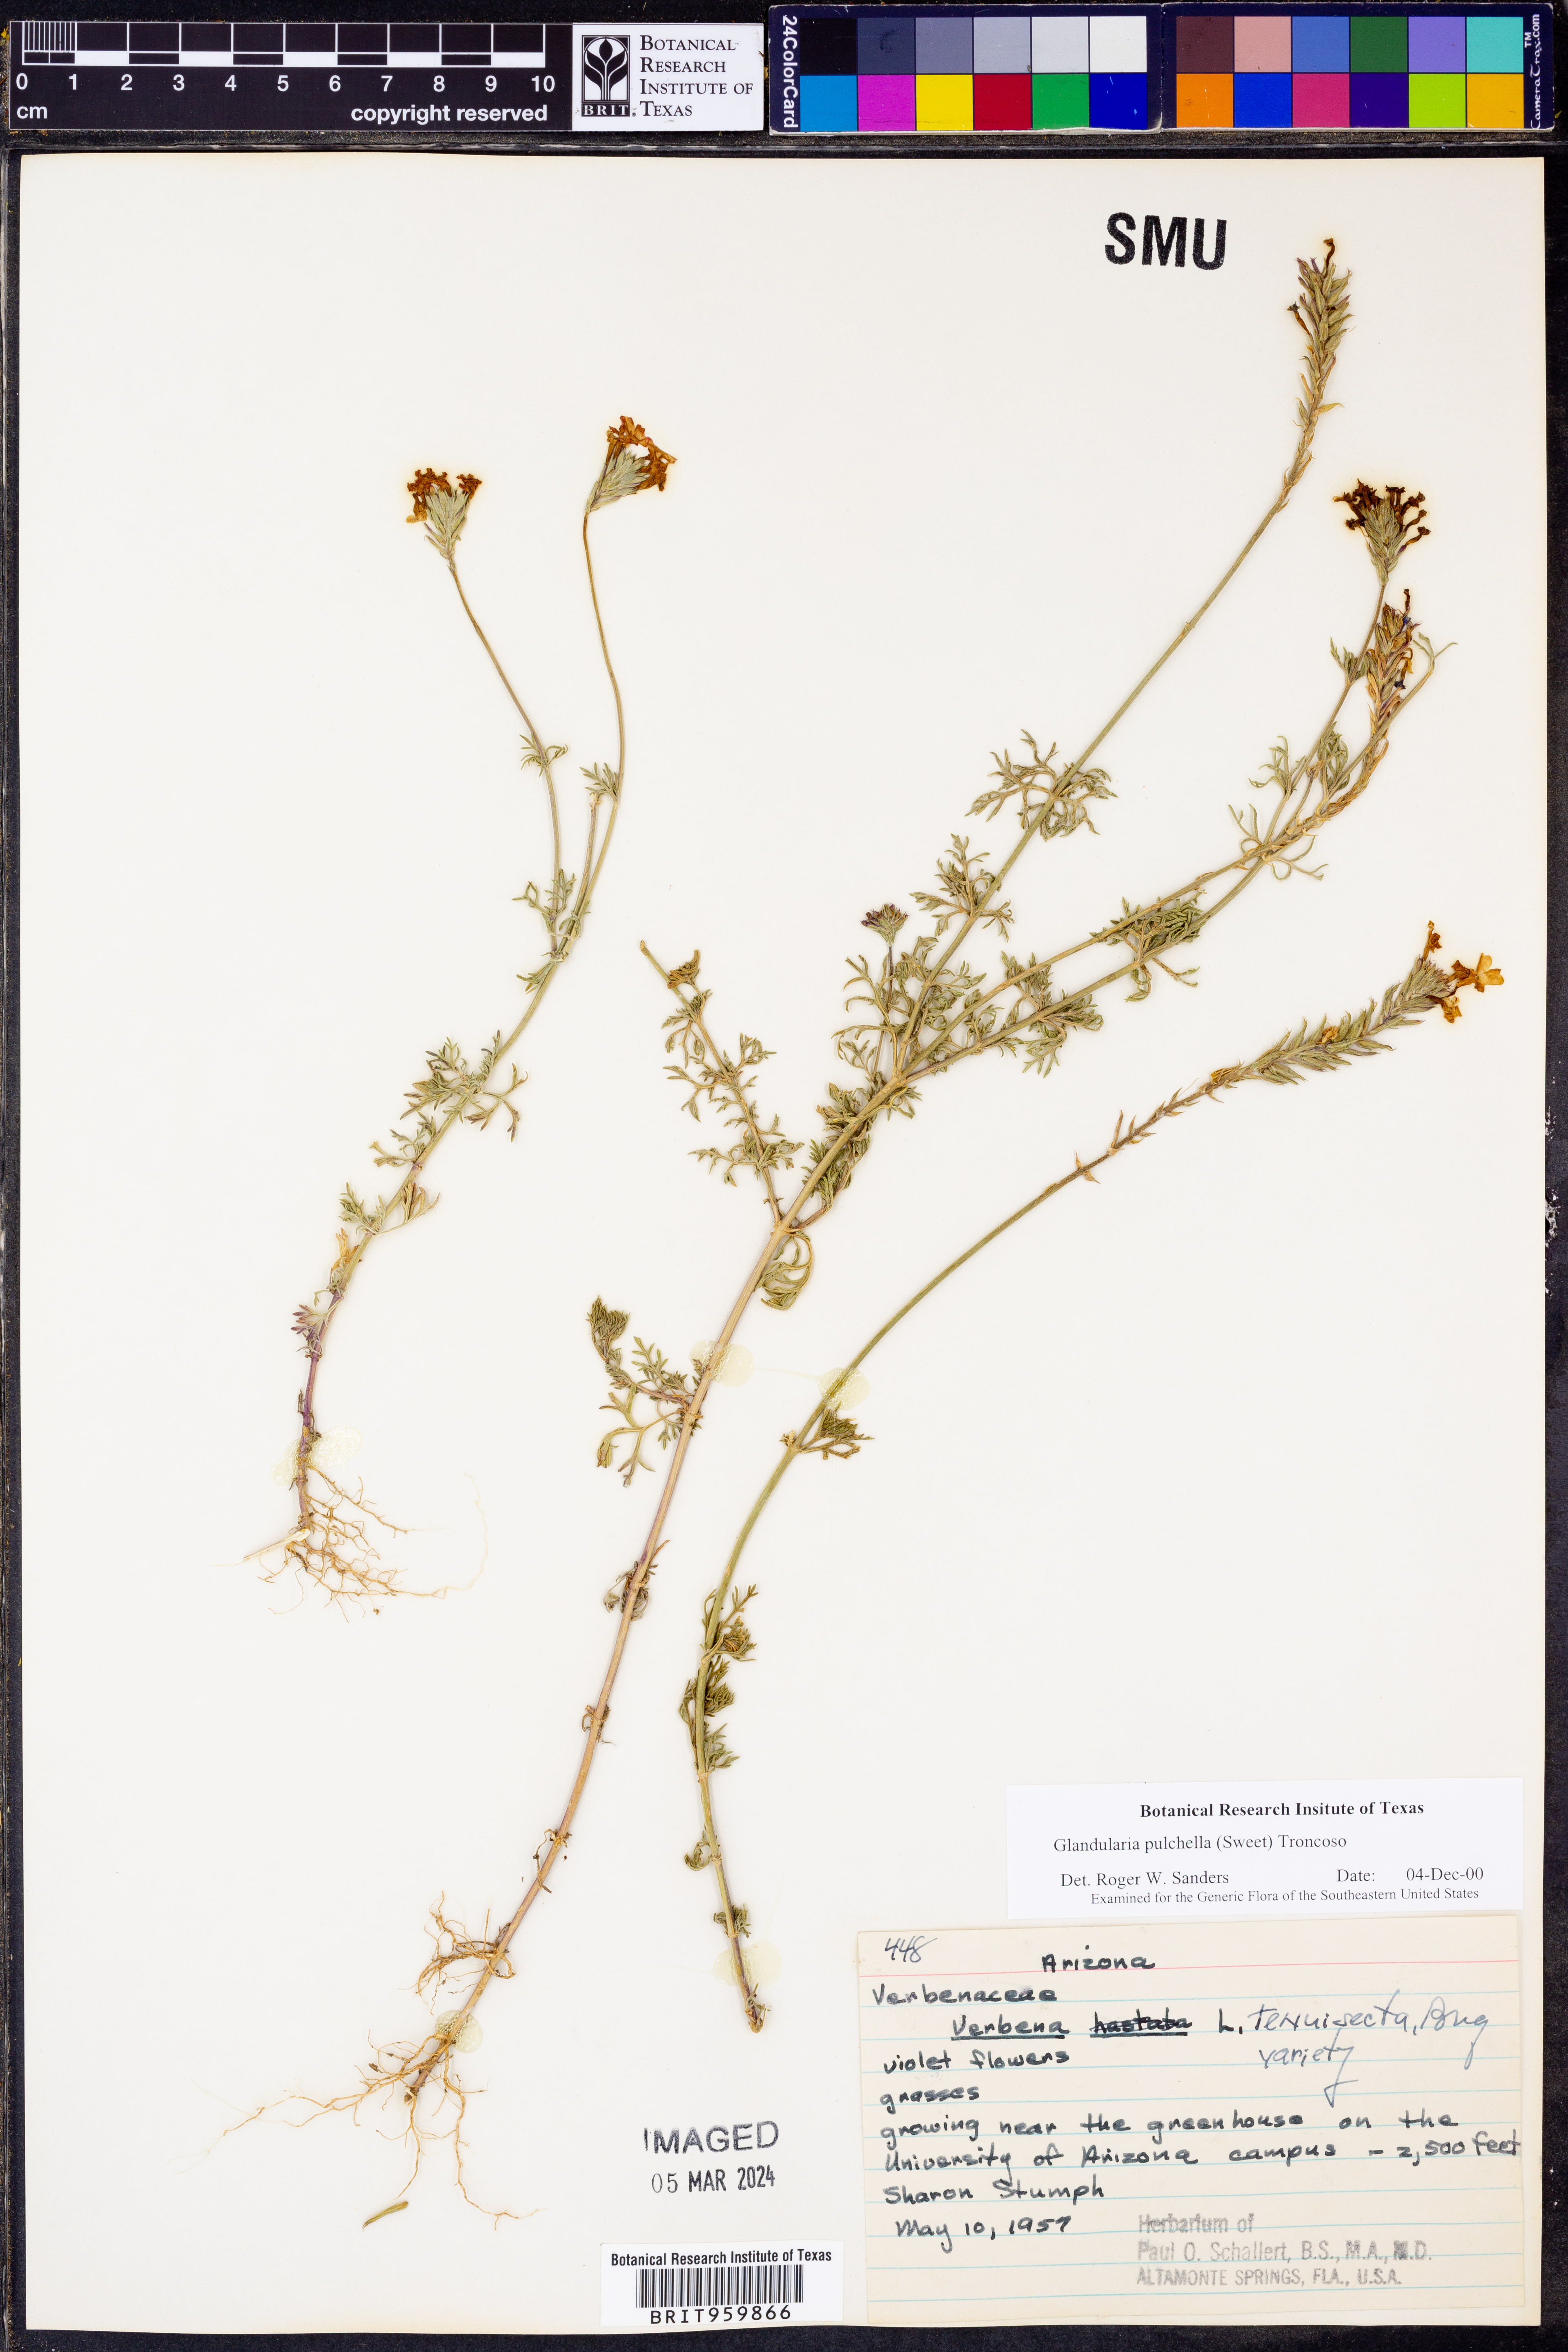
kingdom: Plantae
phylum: Tracheophyta
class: Magnoliopsida
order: Lamiales
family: Verbenaceae
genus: Verbena
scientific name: Verbena tenera
